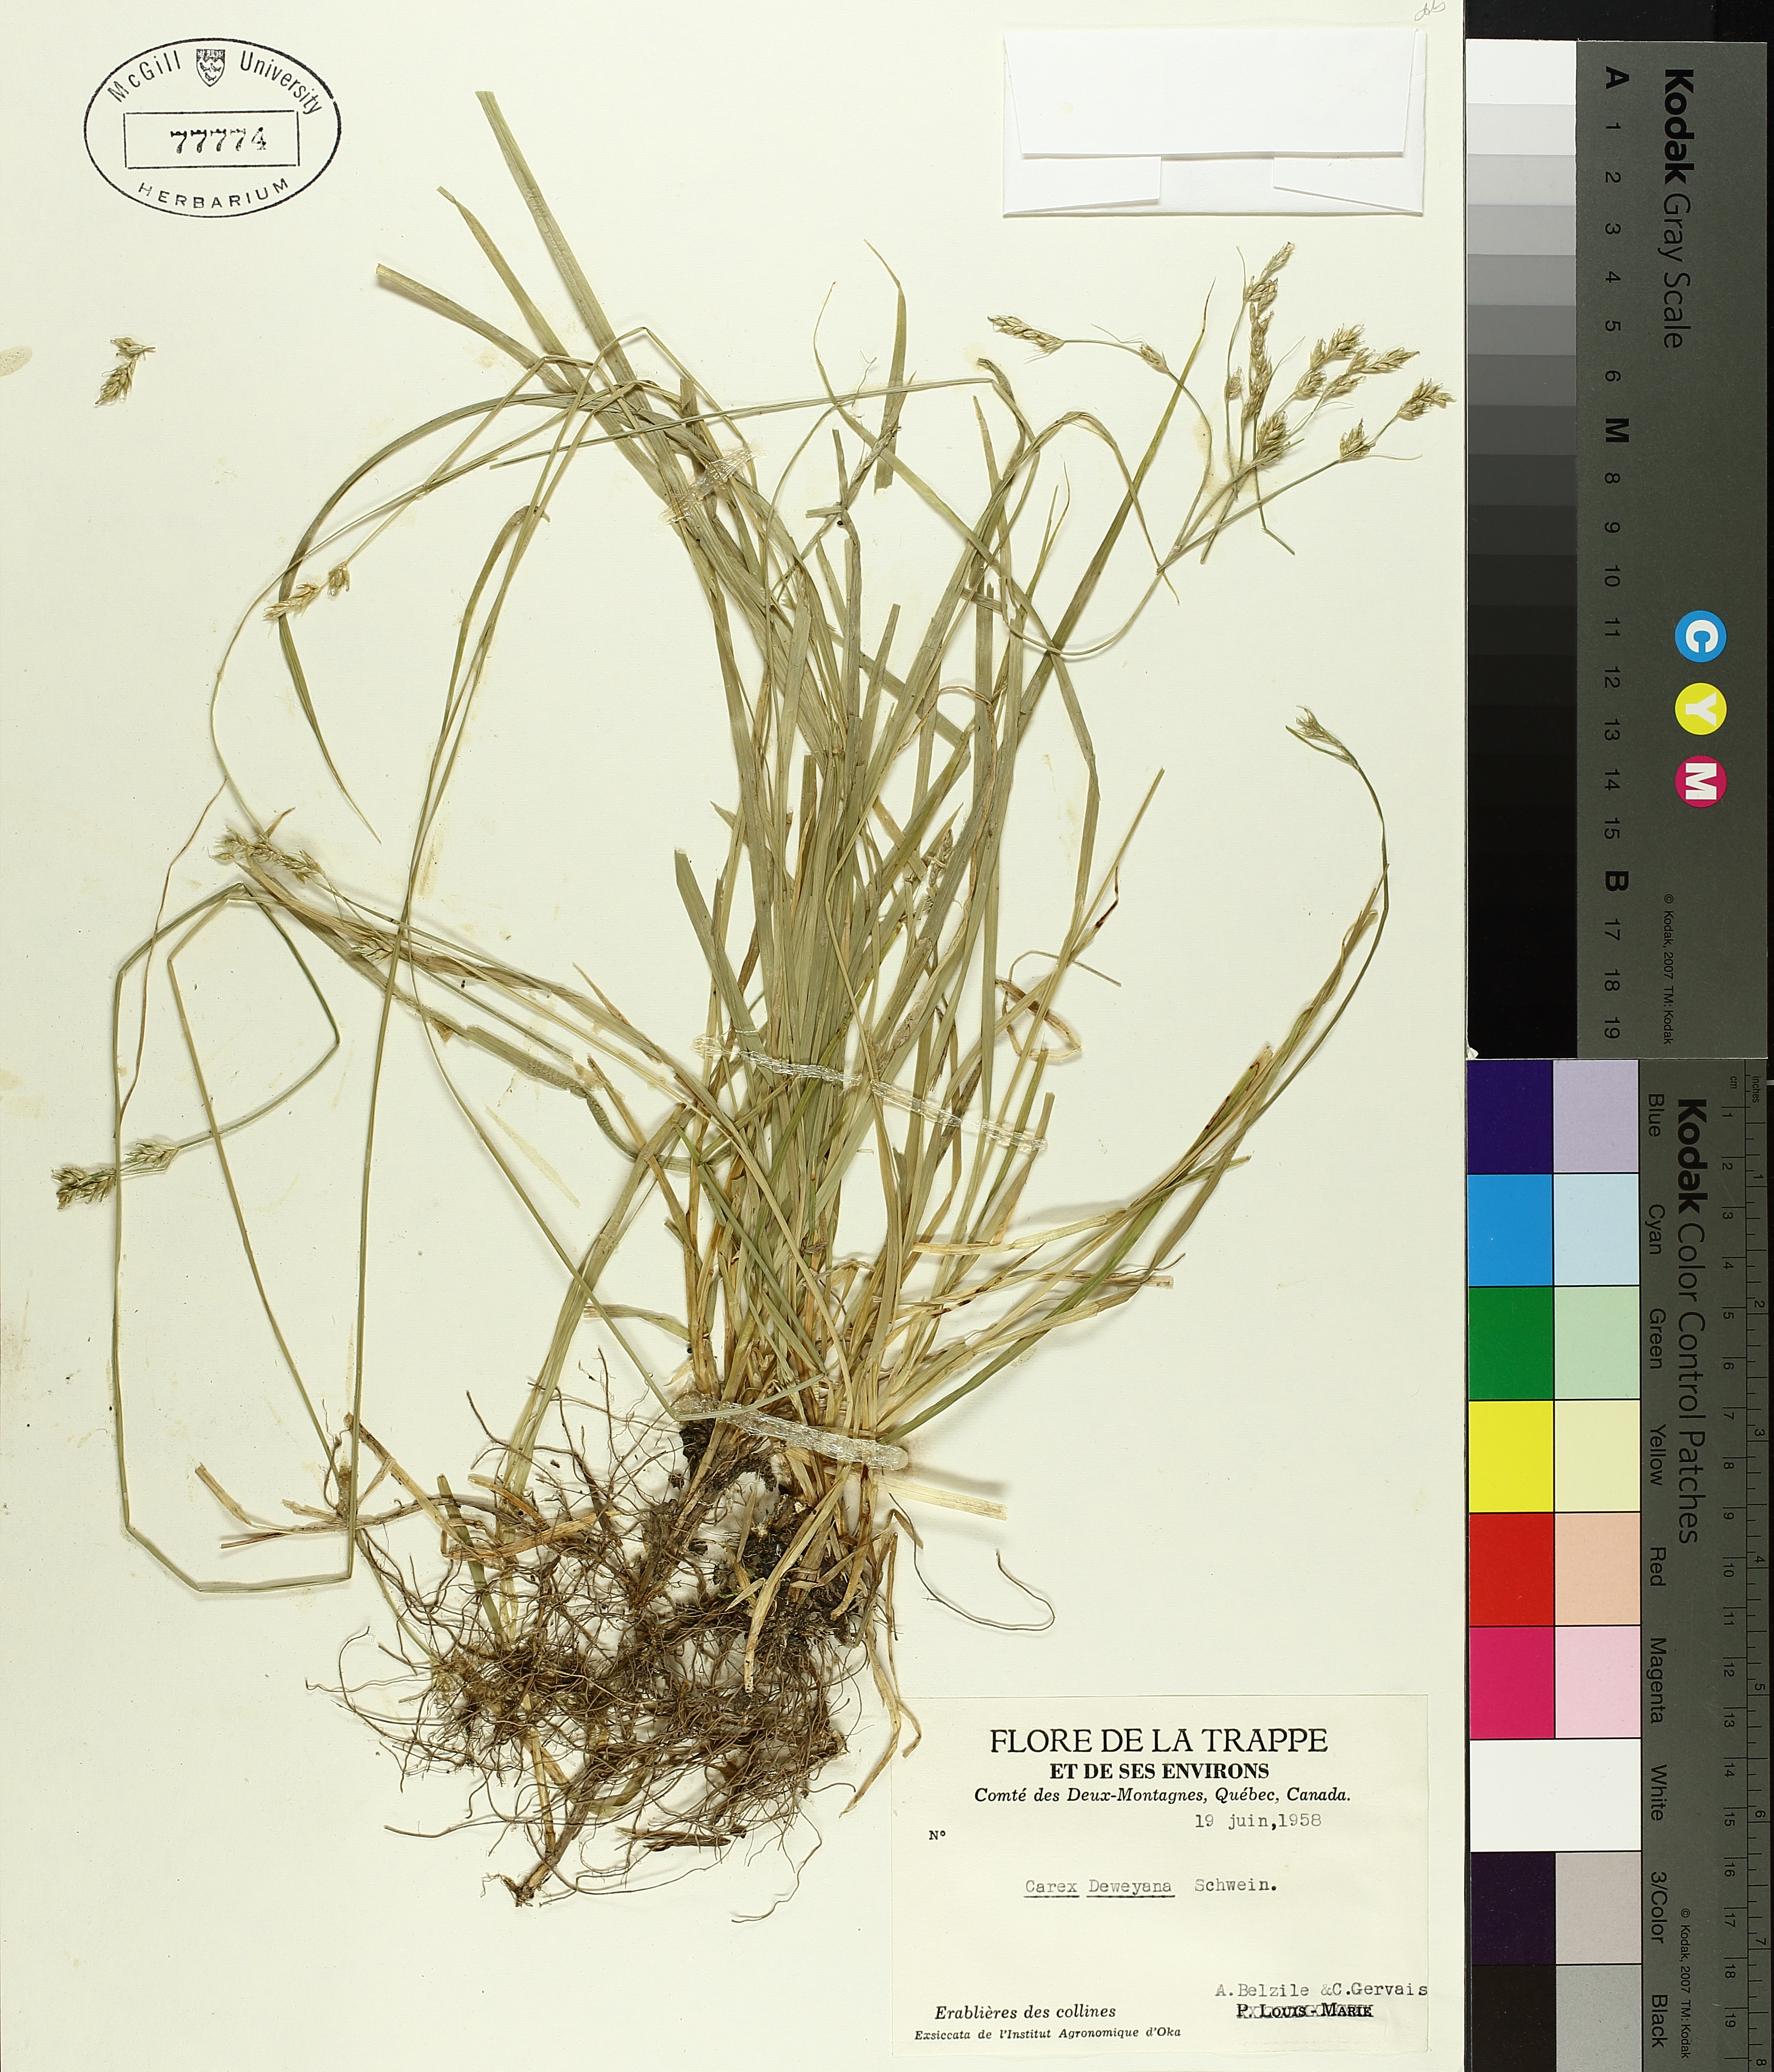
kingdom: Plantae
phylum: Tracheophyta
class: Liliopsida
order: Poales
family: Cyperaceae
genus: Carex
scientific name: Carex deweyana
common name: Dewey's sedge
